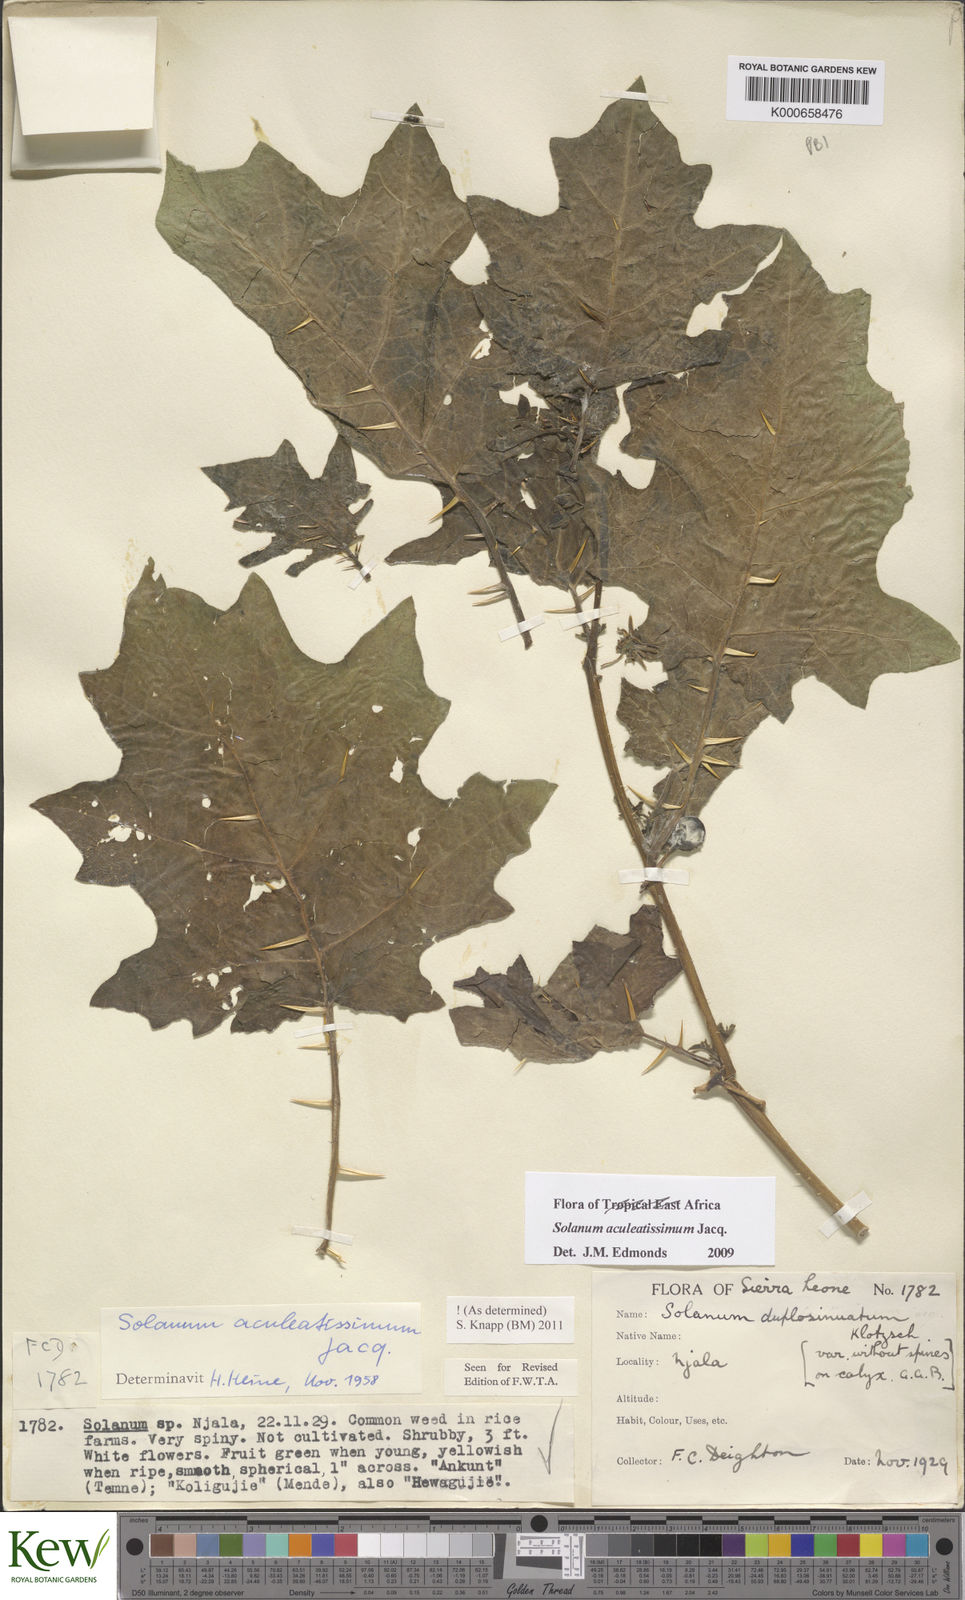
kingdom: Plantae
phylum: Tracheophyta
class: Magnoliopsida
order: Solanales
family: Solanaceae
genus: Solanum
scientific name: Solanum aculeatissimum
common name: Dutch eggplant
